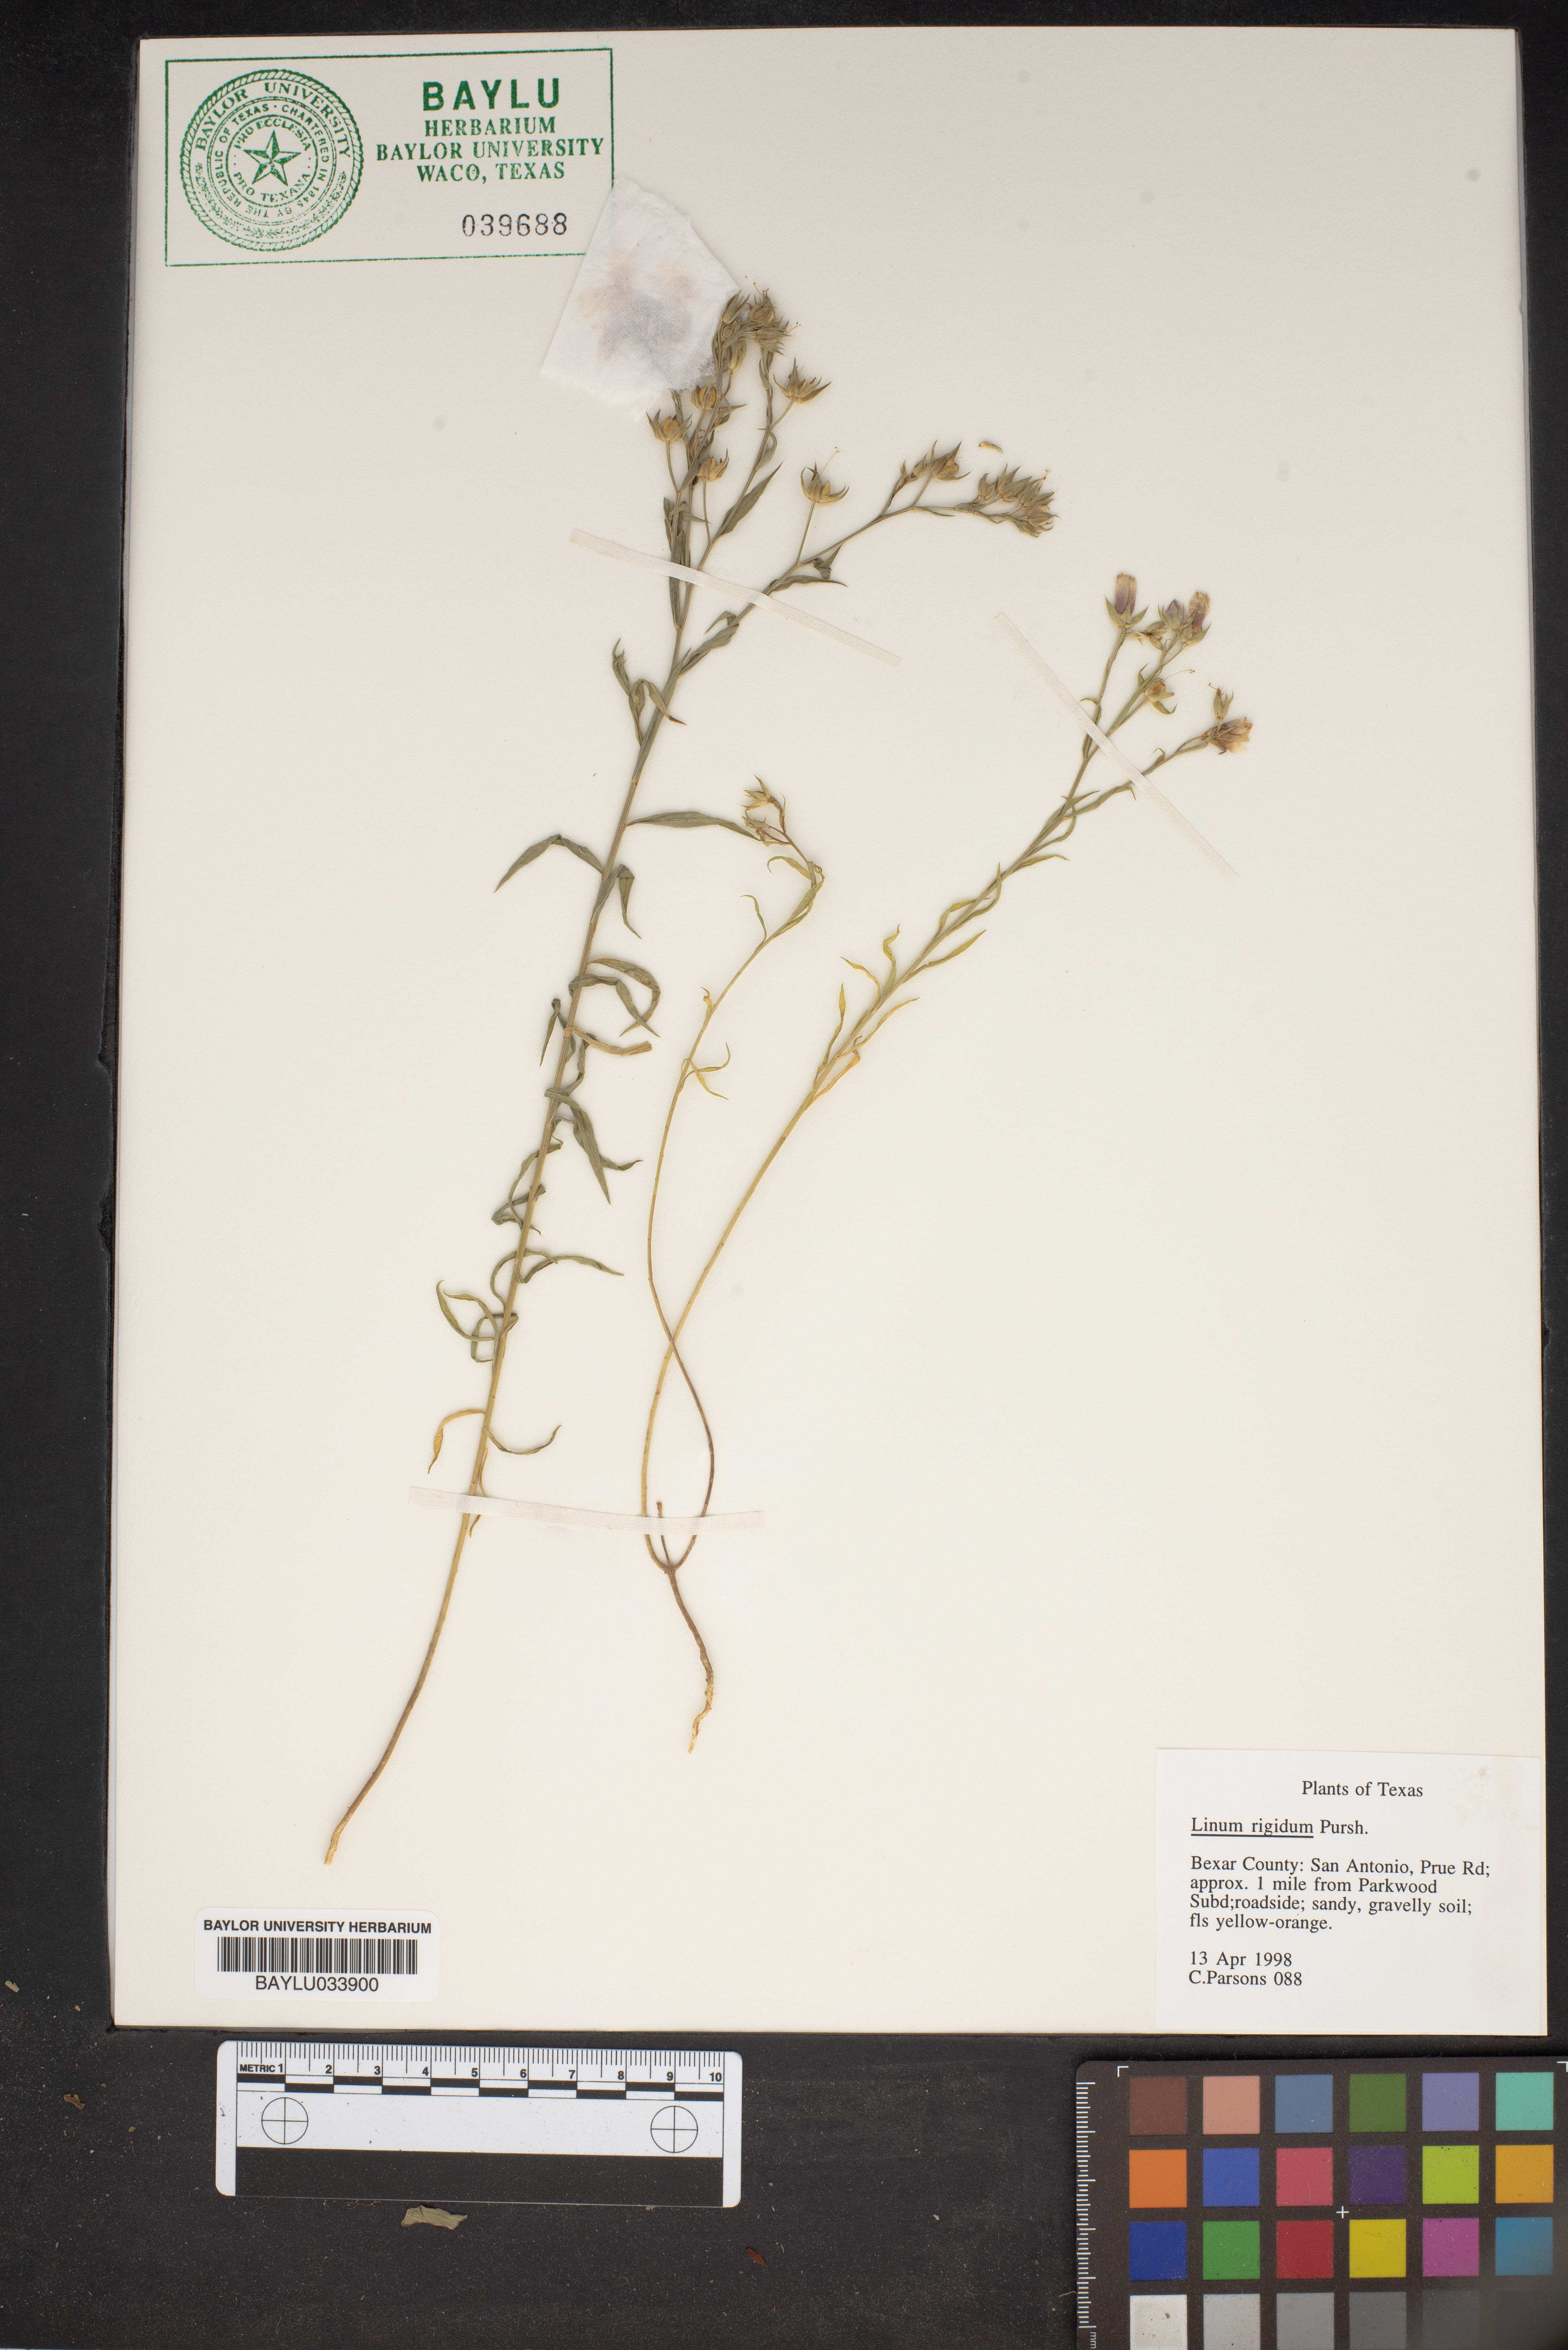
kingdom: Plantae
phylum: Tracheophyta
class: Magnoliopsida
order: Malpighiales
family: Linaceae
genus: Linum
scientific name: Linum rigidum
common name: Stiff-stem flax
